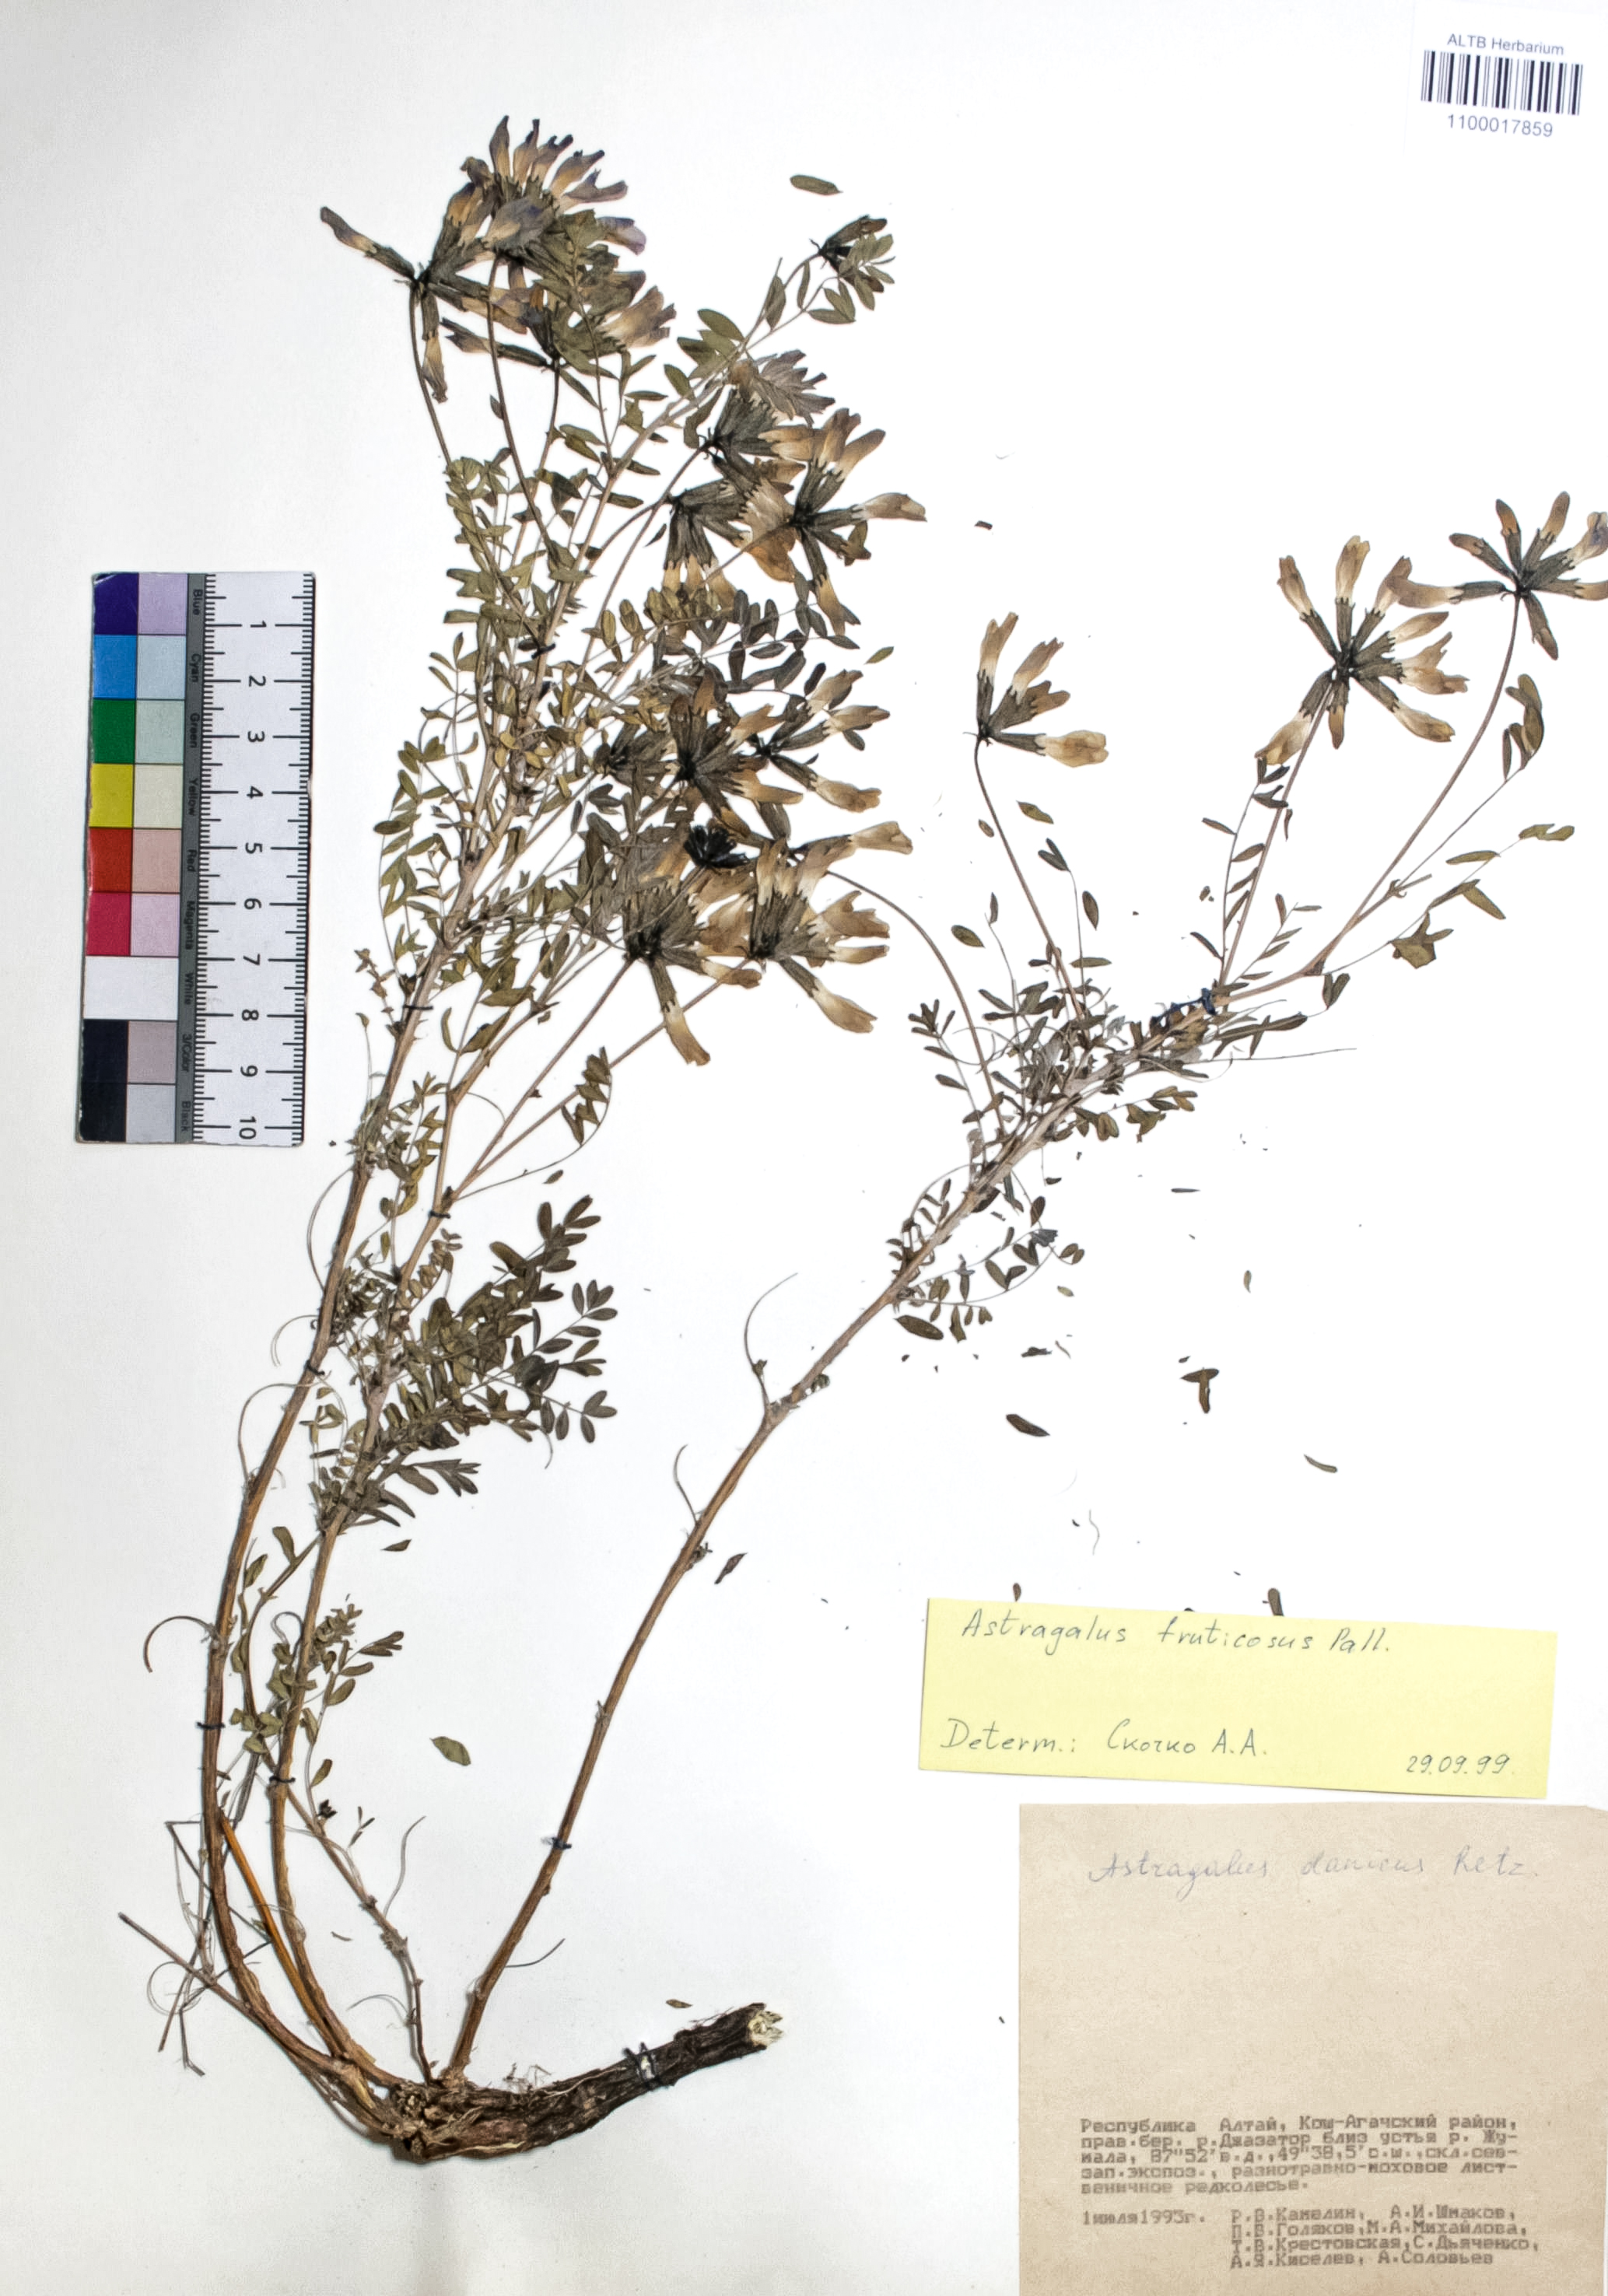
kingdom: Plantae
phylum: Tracheophyta
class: Magnoliopsida
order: Fabales
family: Fabaceae
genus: Astragalus
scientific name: Astragalus syriacus
